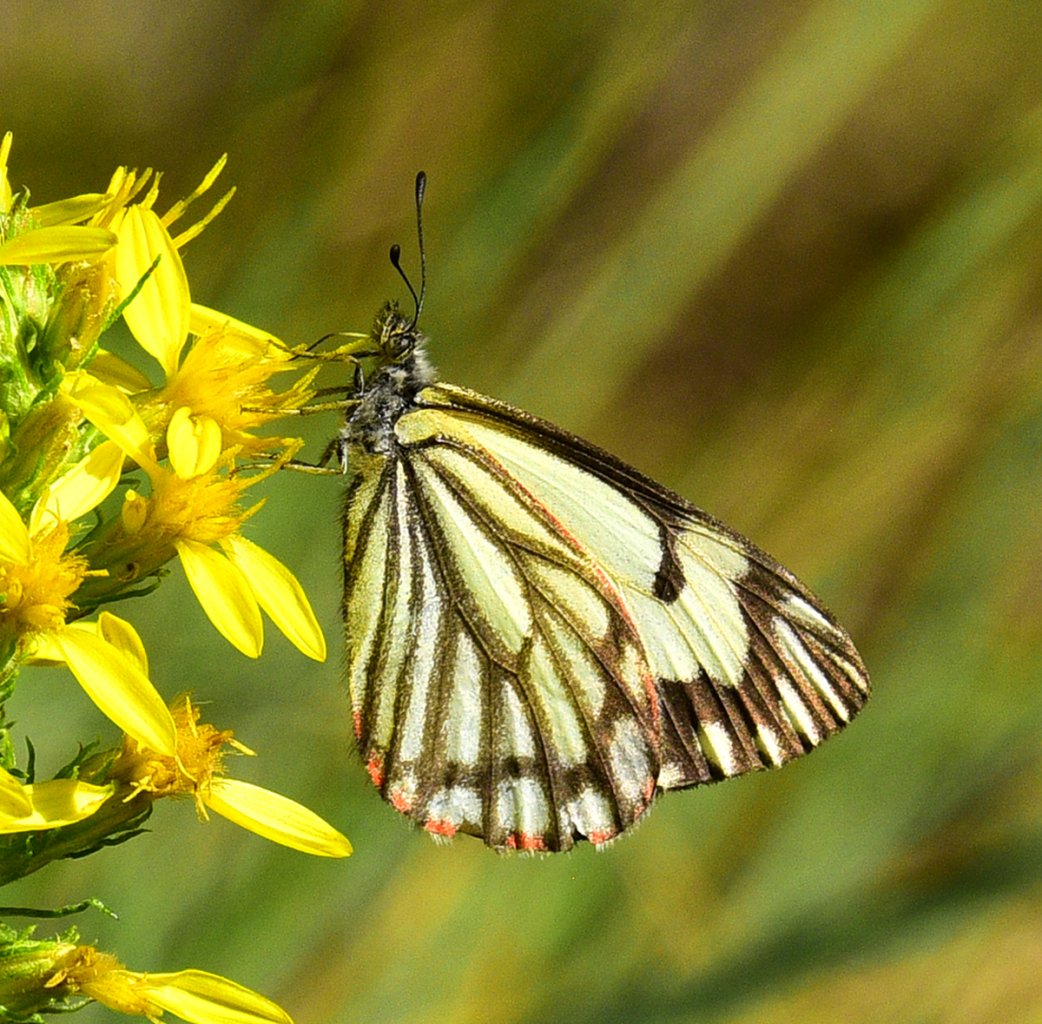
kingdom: Animalia
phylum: Arthropoda
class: Insecta
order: Lepidoptera
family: Pieridae
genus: Neophasia
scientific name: Neophasia menapia
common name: Pine White
